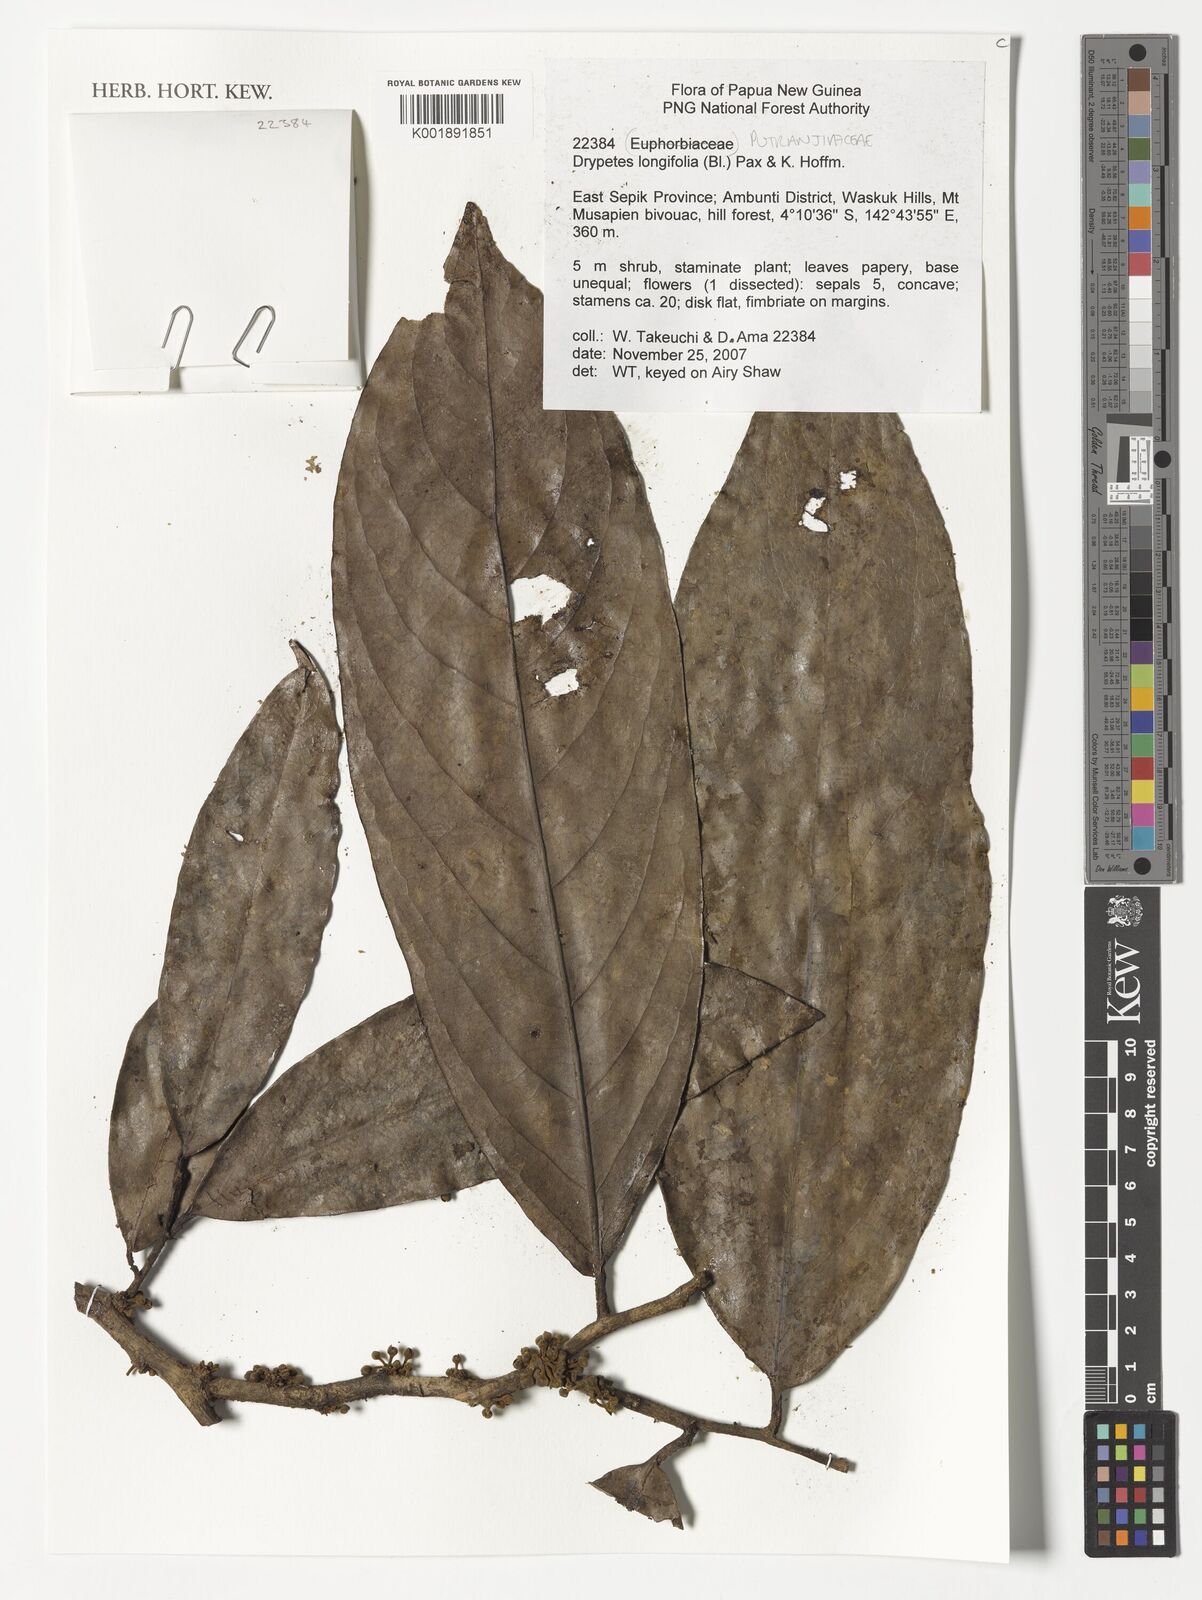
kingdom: Plantae
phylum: Tracheophyta
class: Magnoliopsida
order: Malpighiales
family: Putranjivaceae
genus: Drypetes
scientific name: Drypetes longifolia
